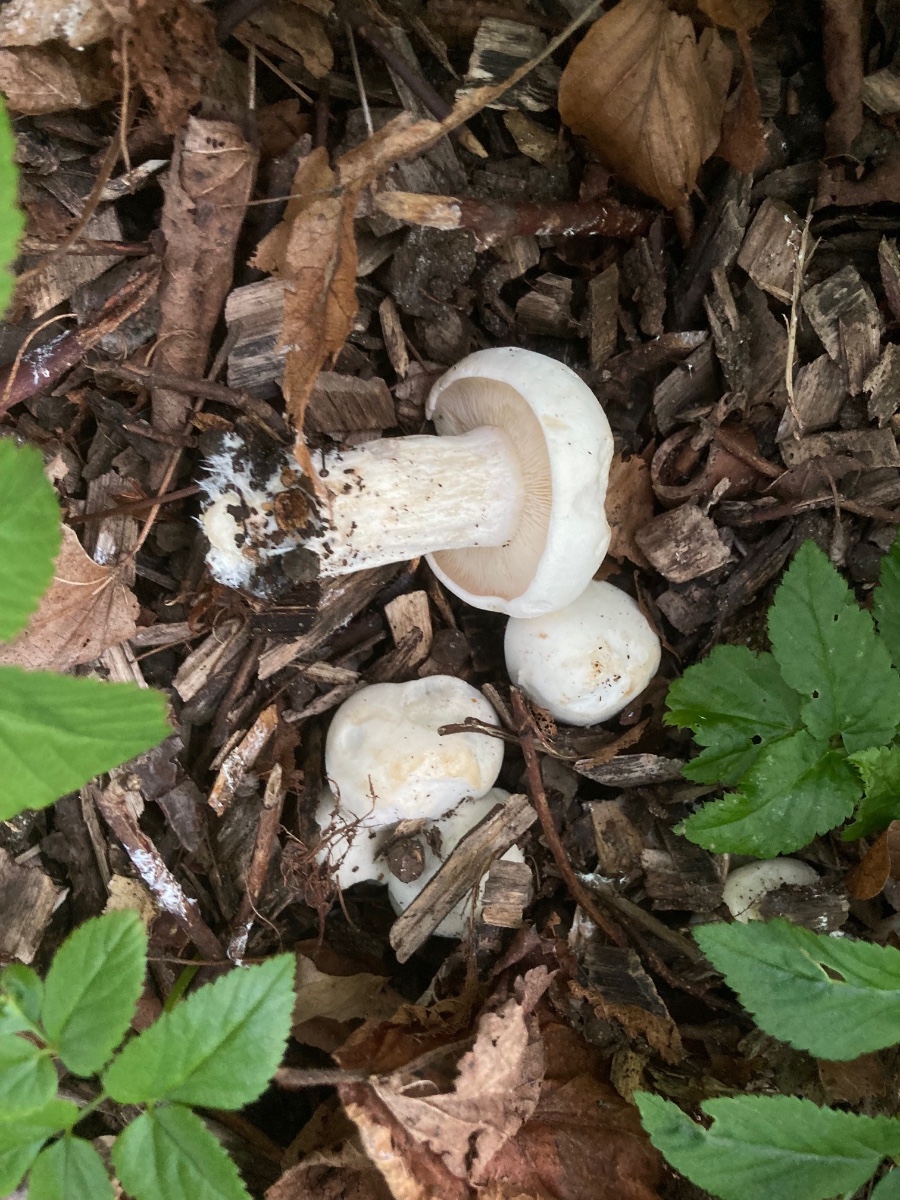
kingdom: Fungi
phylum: Basidiomycota
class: Agaricomycetes
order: Agaricales
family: Lyophyllaceae
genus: Calocybe
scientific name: Calocybe gambosa
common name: vårmusseron
